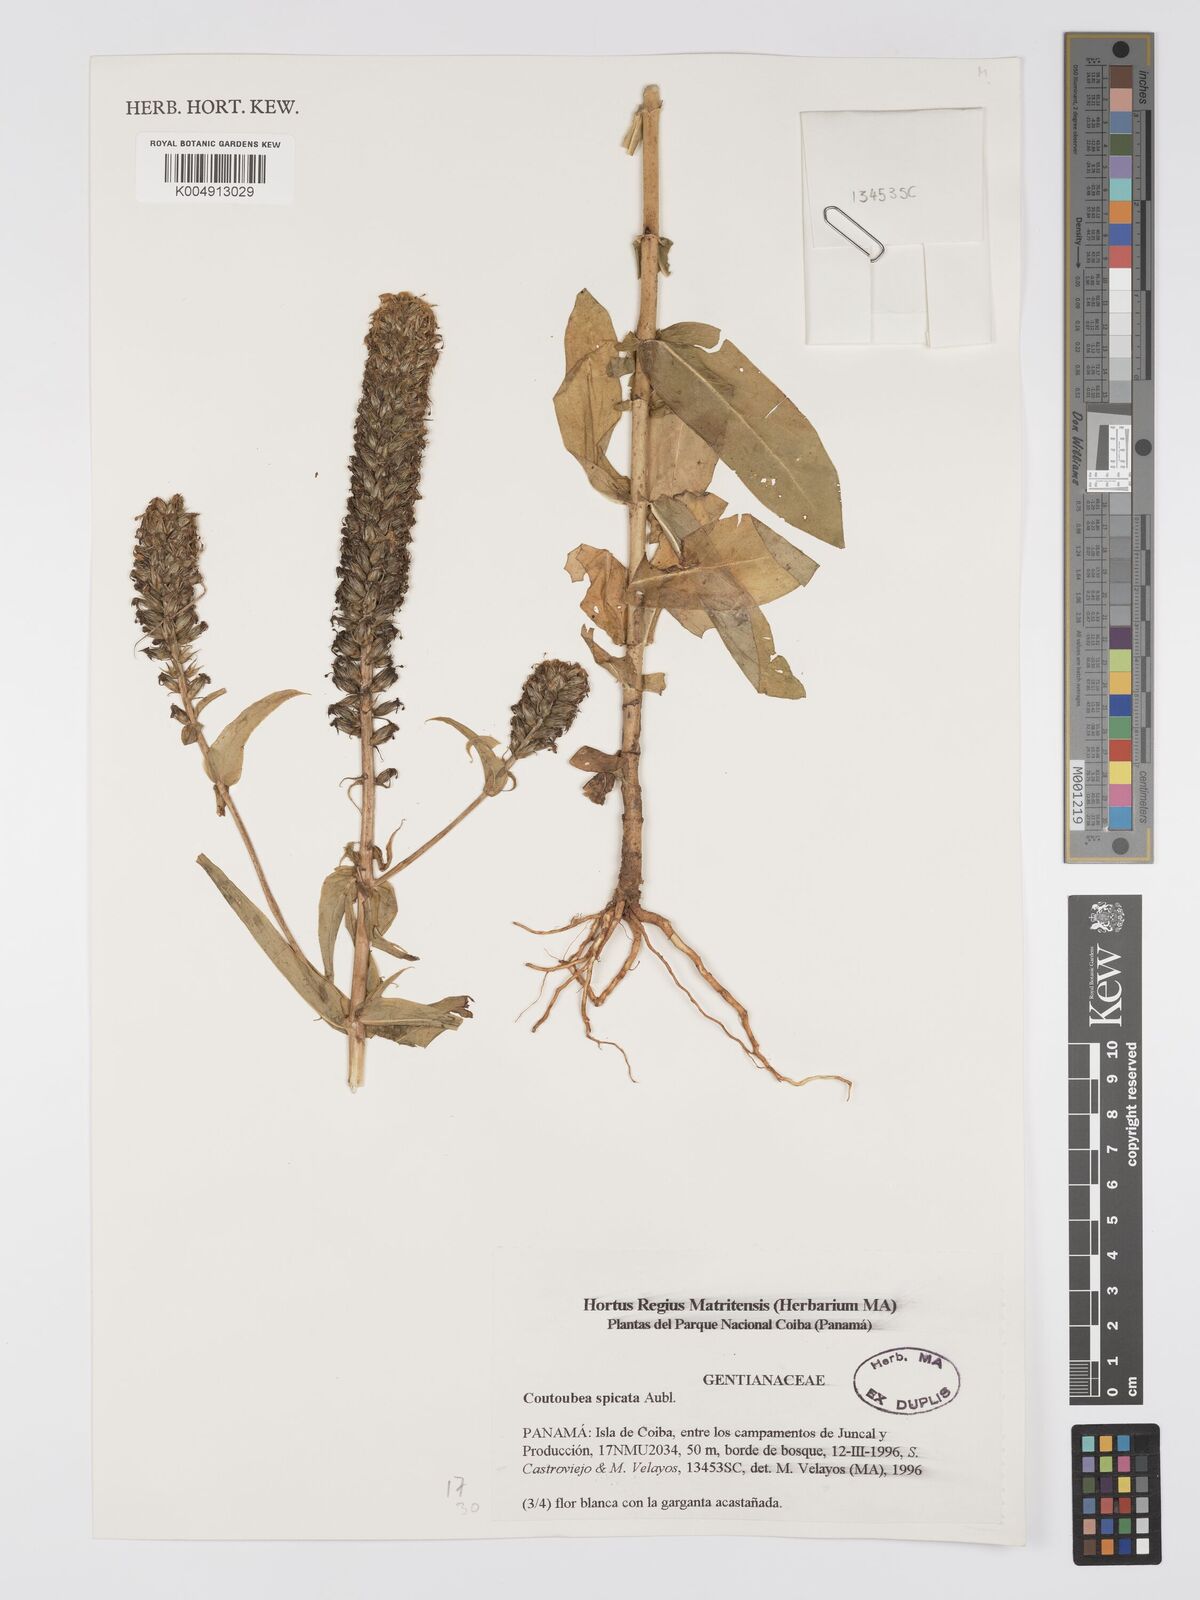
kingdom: Plantae
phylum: Tracheophyta
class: Magnoliopsida
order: Gentianales
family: Gentianaceae
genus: Coutoubea
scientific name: Coutoubea spicata
